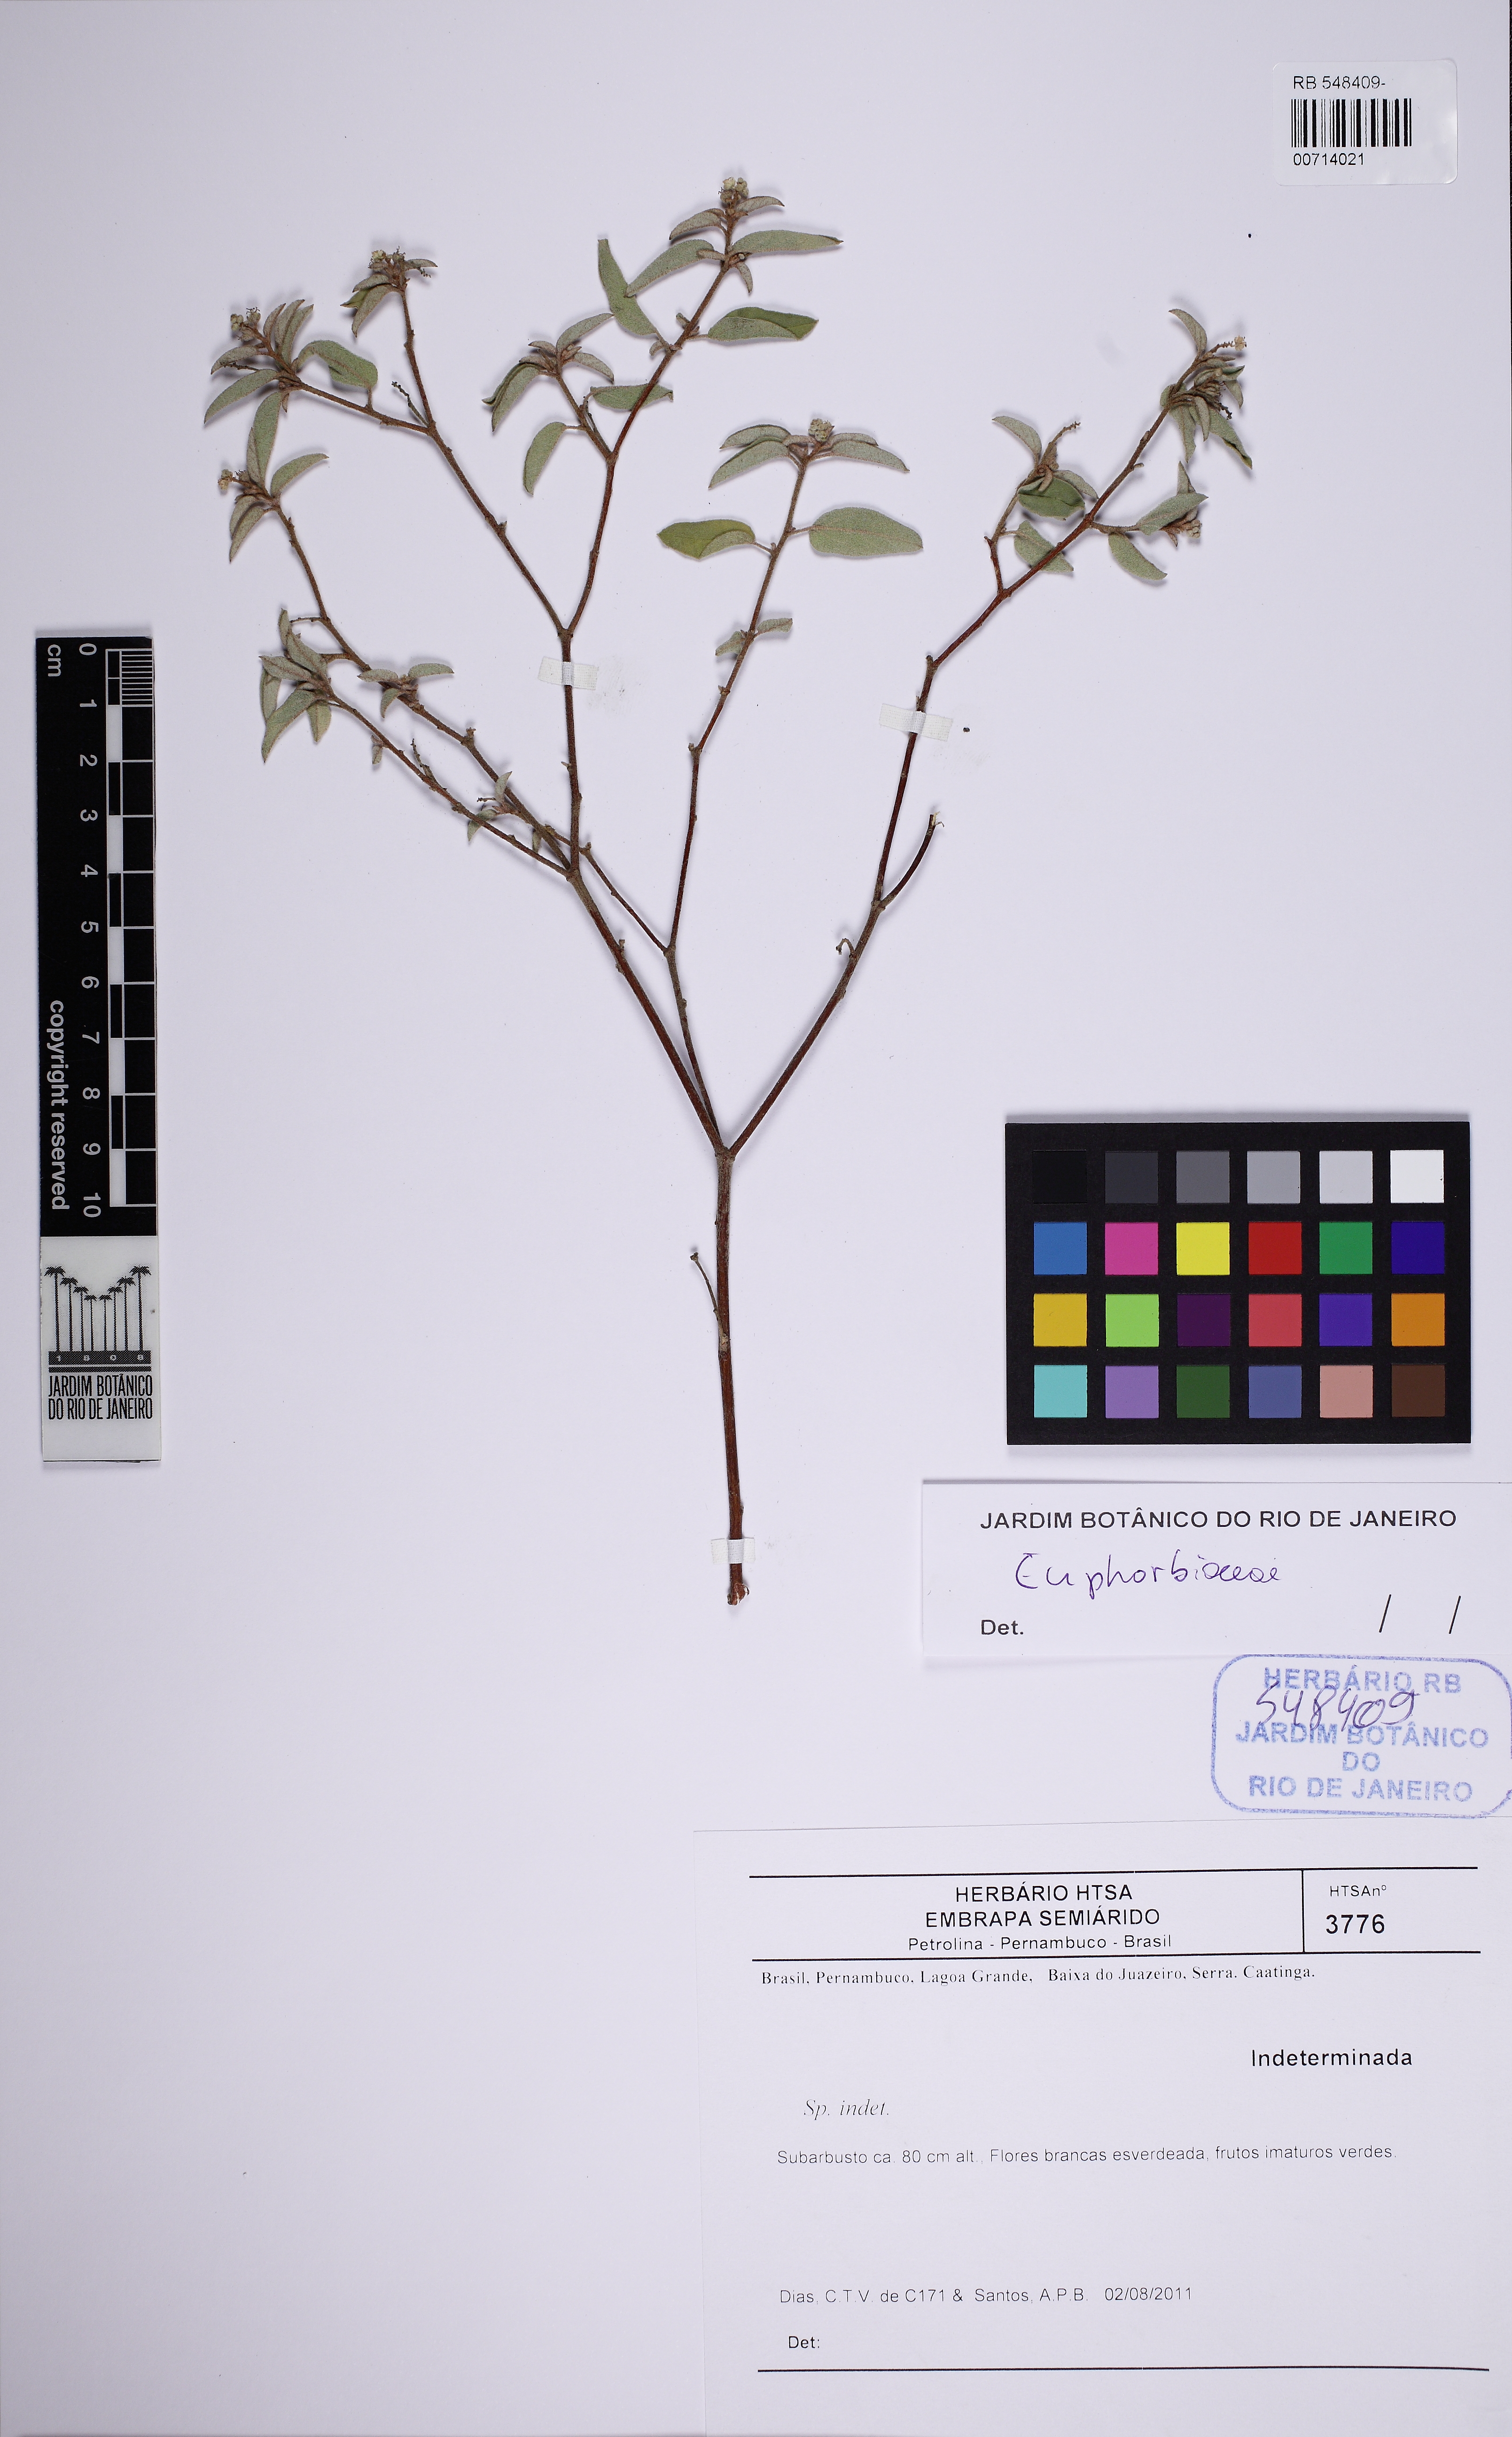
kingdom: Plantae
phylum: Tracheophyta
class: Magnoliopsida
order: Malpighiales
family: Euphorbiaceae
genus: Croton
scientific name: Croton pedicellatus
